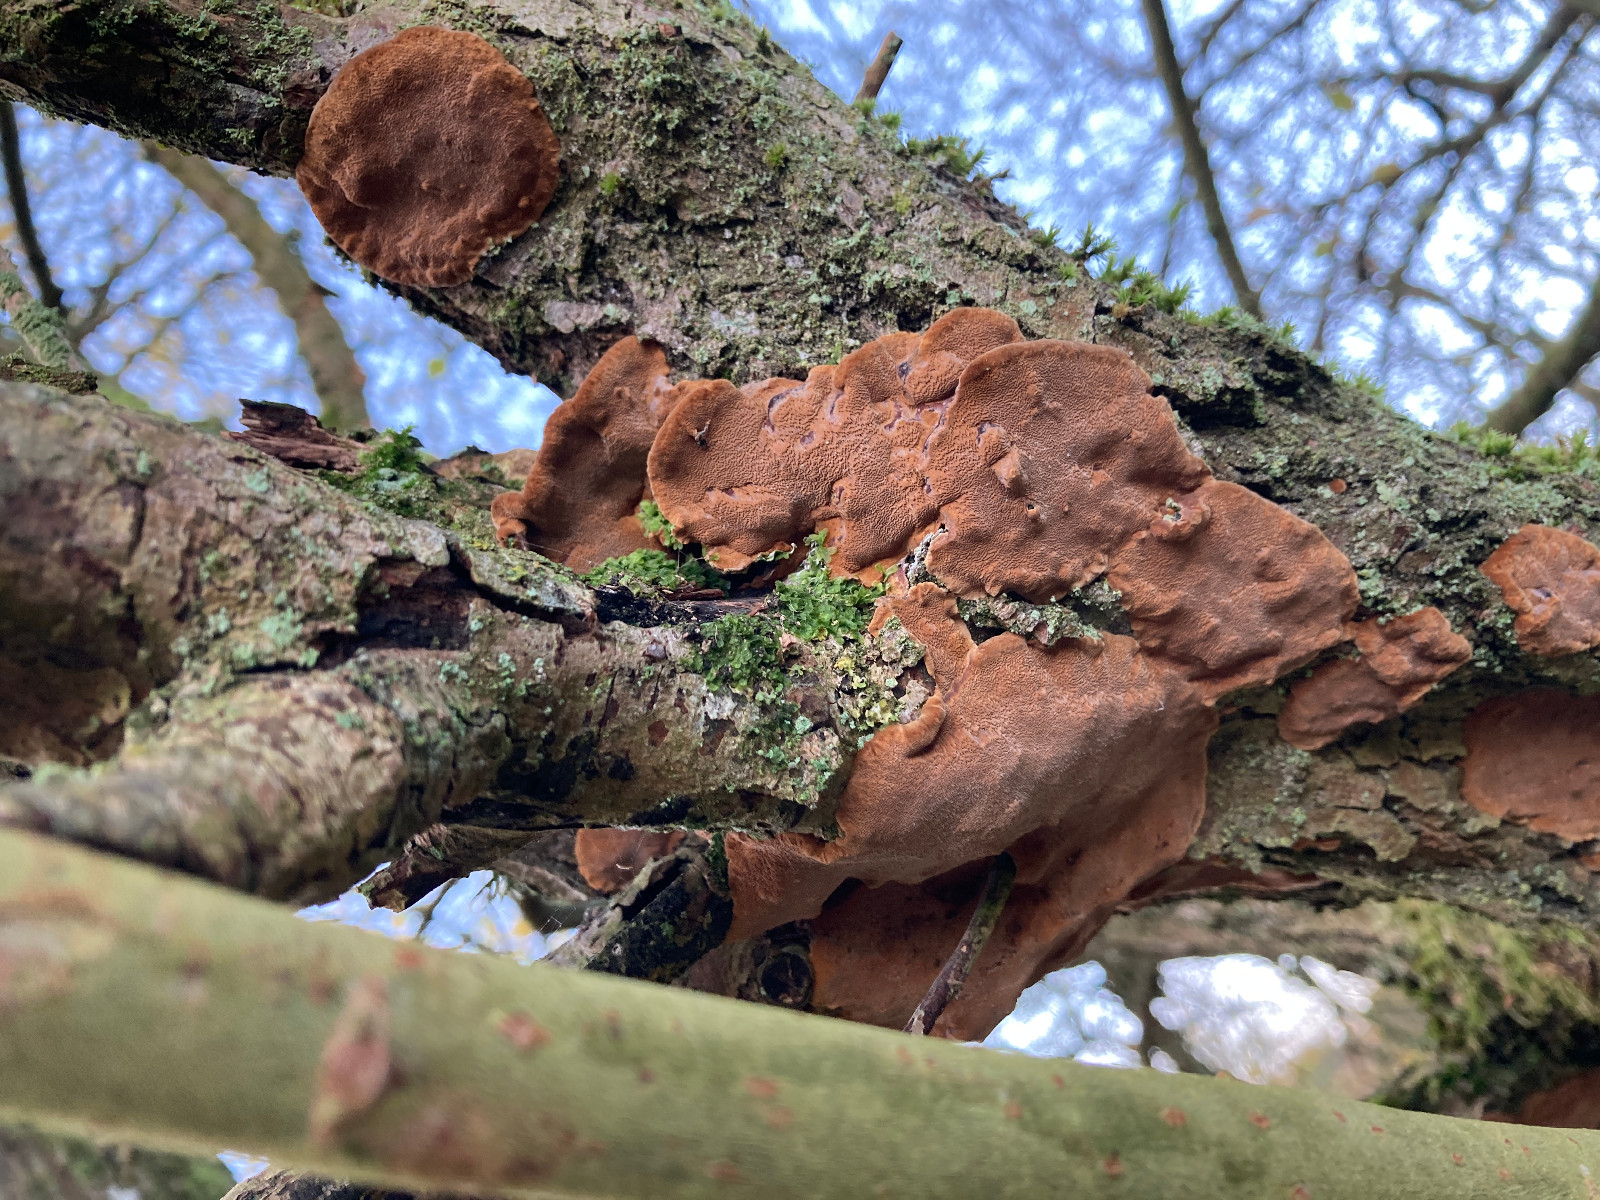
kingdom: Fungi
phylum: Basidiomycota
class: Agaricomycetes
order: Hymenochaetales
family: Hymenochaetaceae
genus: Phellinopsis
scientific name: Phellinopsis conchata
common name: pile-ildporesvamp
